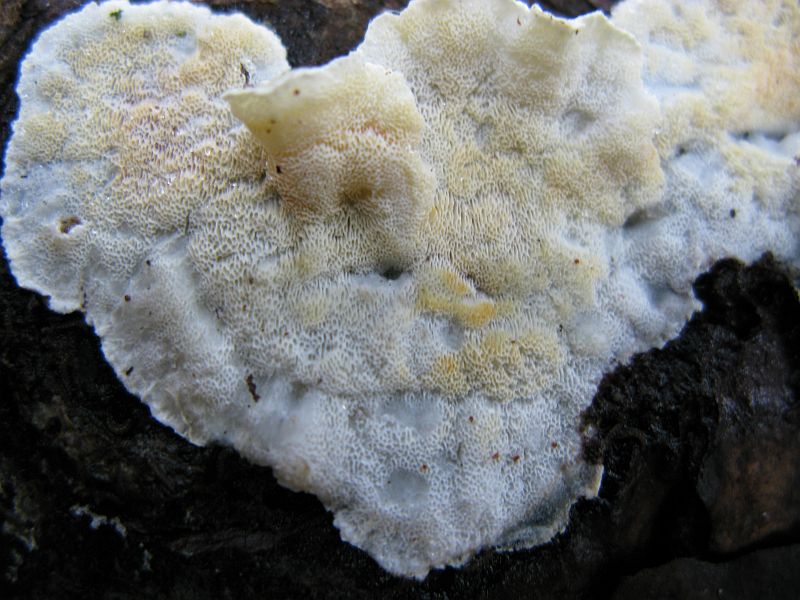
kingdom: Fungi
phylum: Basidiomycota
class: Agaricomycetes
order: Polyporales
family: Incrustoporiaceae
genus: Skeletocutis
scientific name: Skeletocutis amorpha
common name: orange krystalporesvamp
